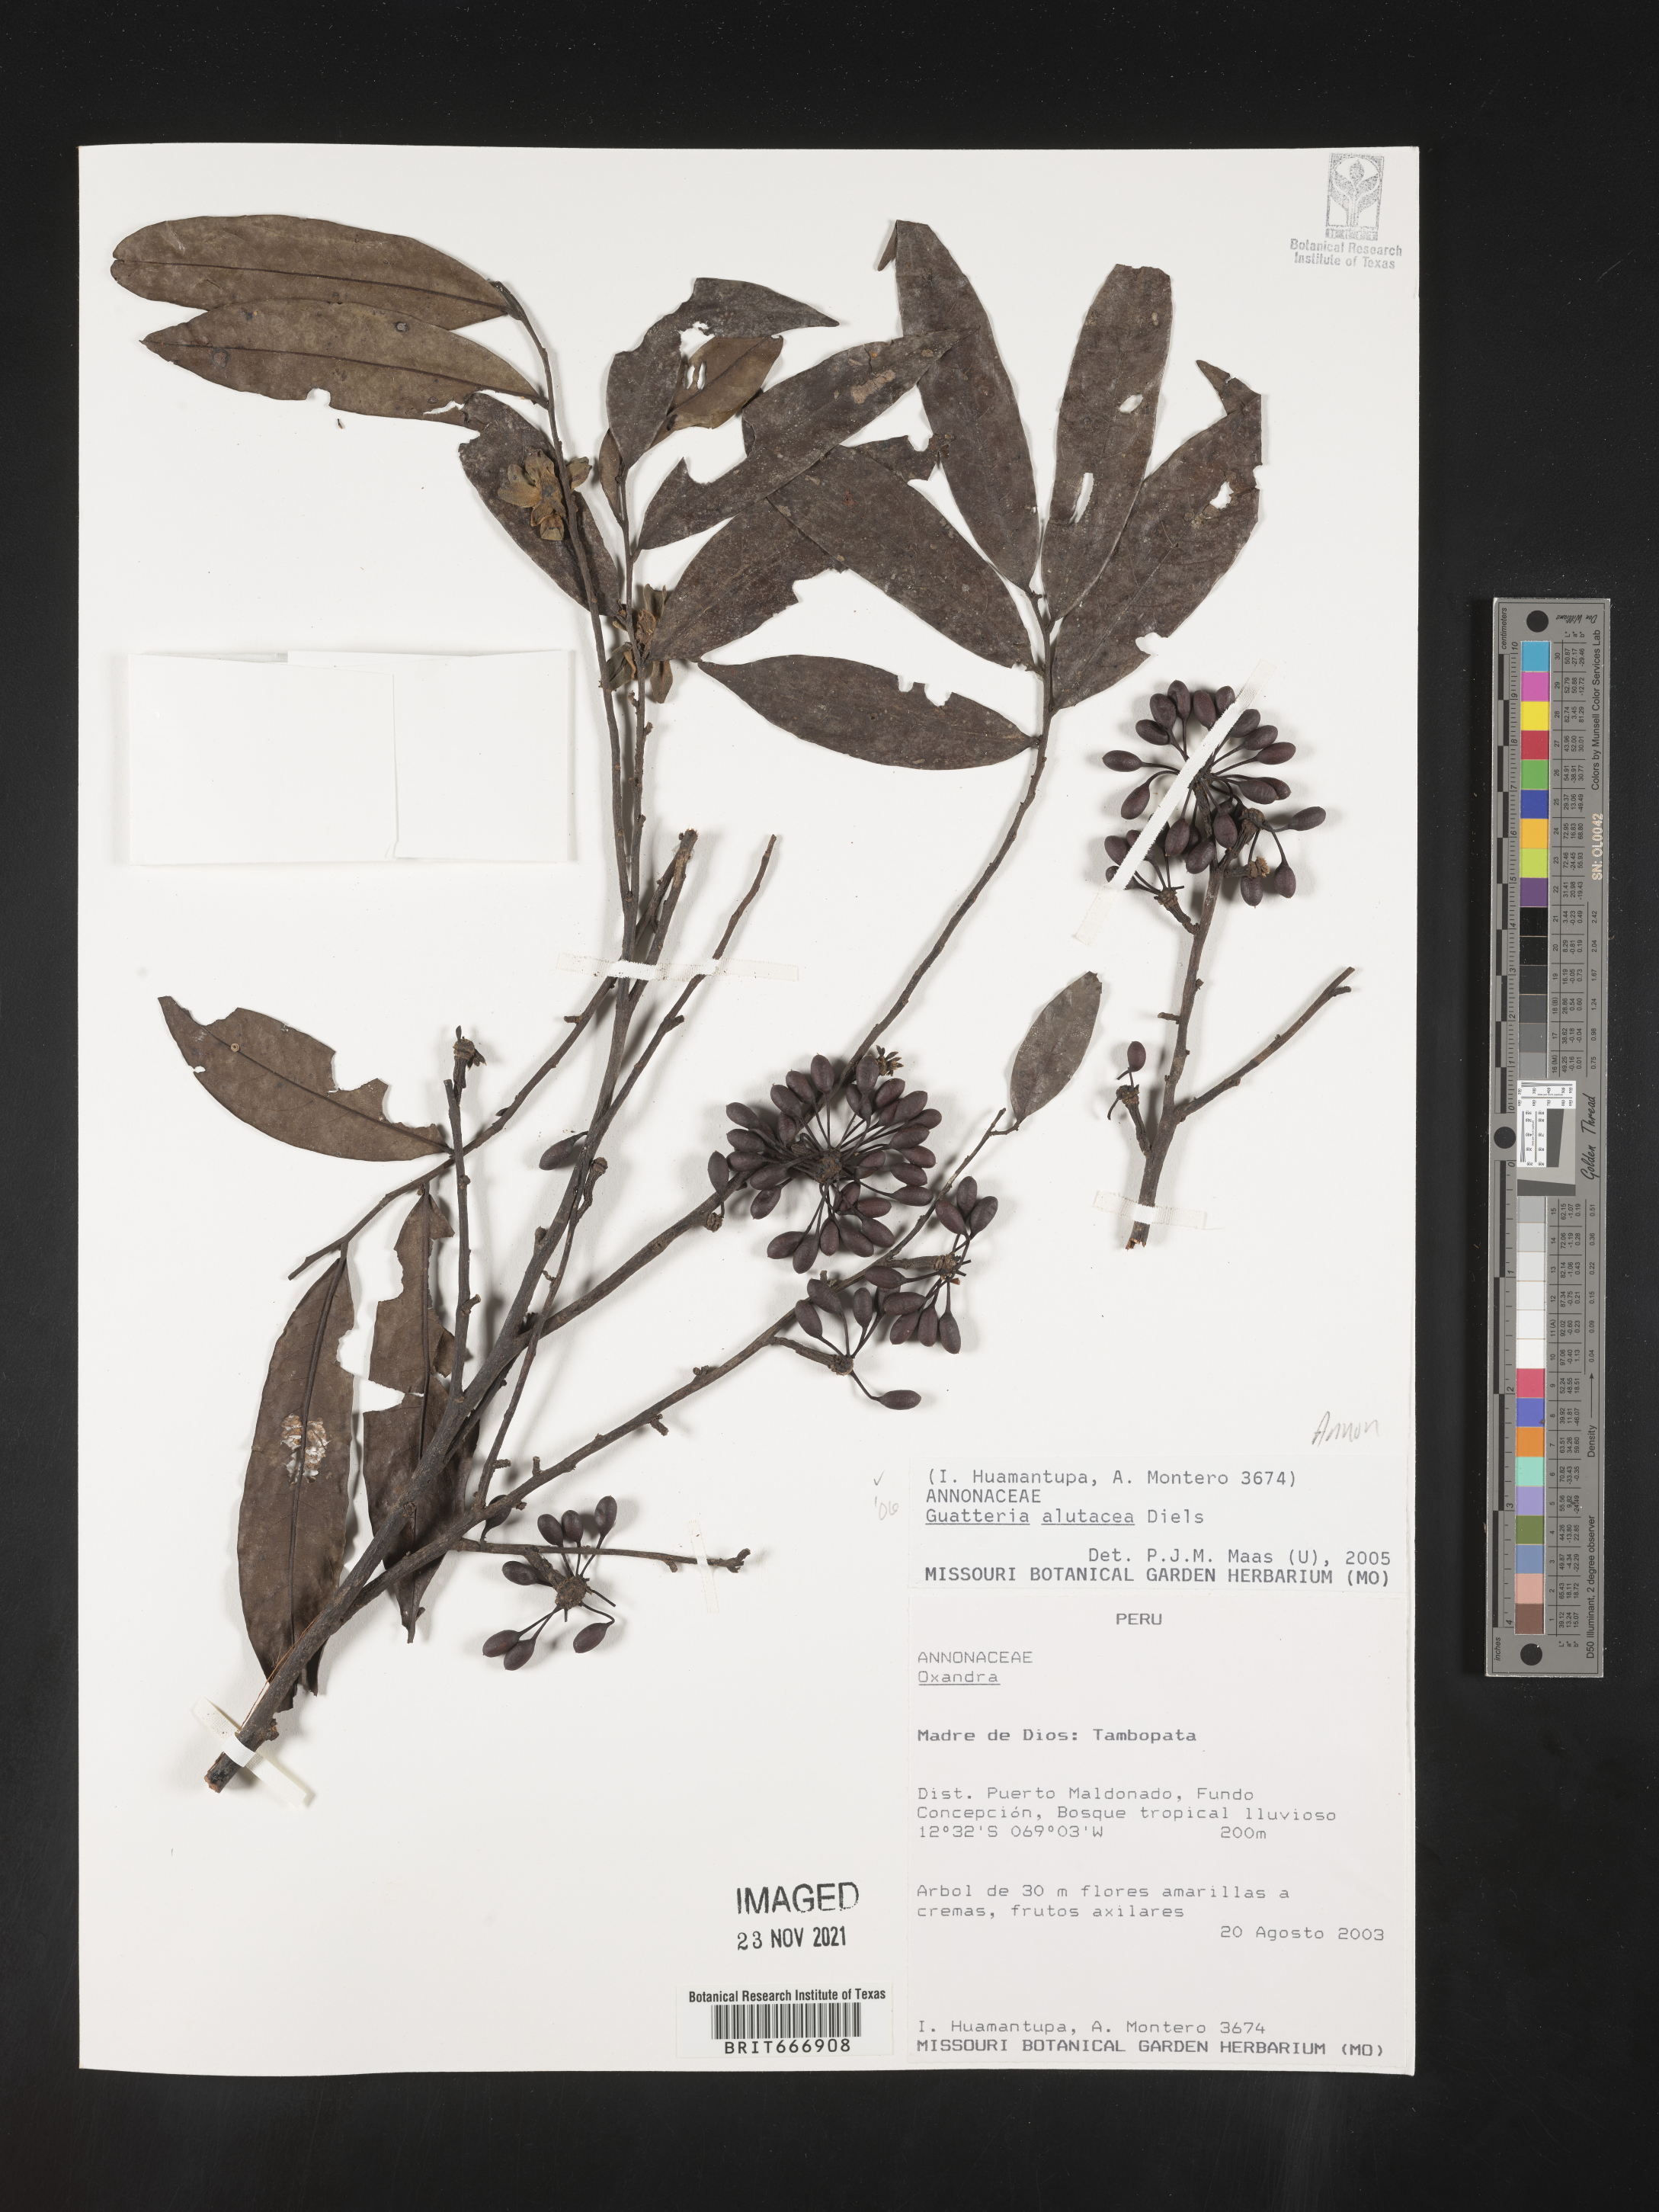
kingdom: Plantae
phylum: Tracheophyta
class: Magnoliopsida
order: Magnoliales
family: Annonaceae
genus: Guatteria
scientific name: Guatteria
